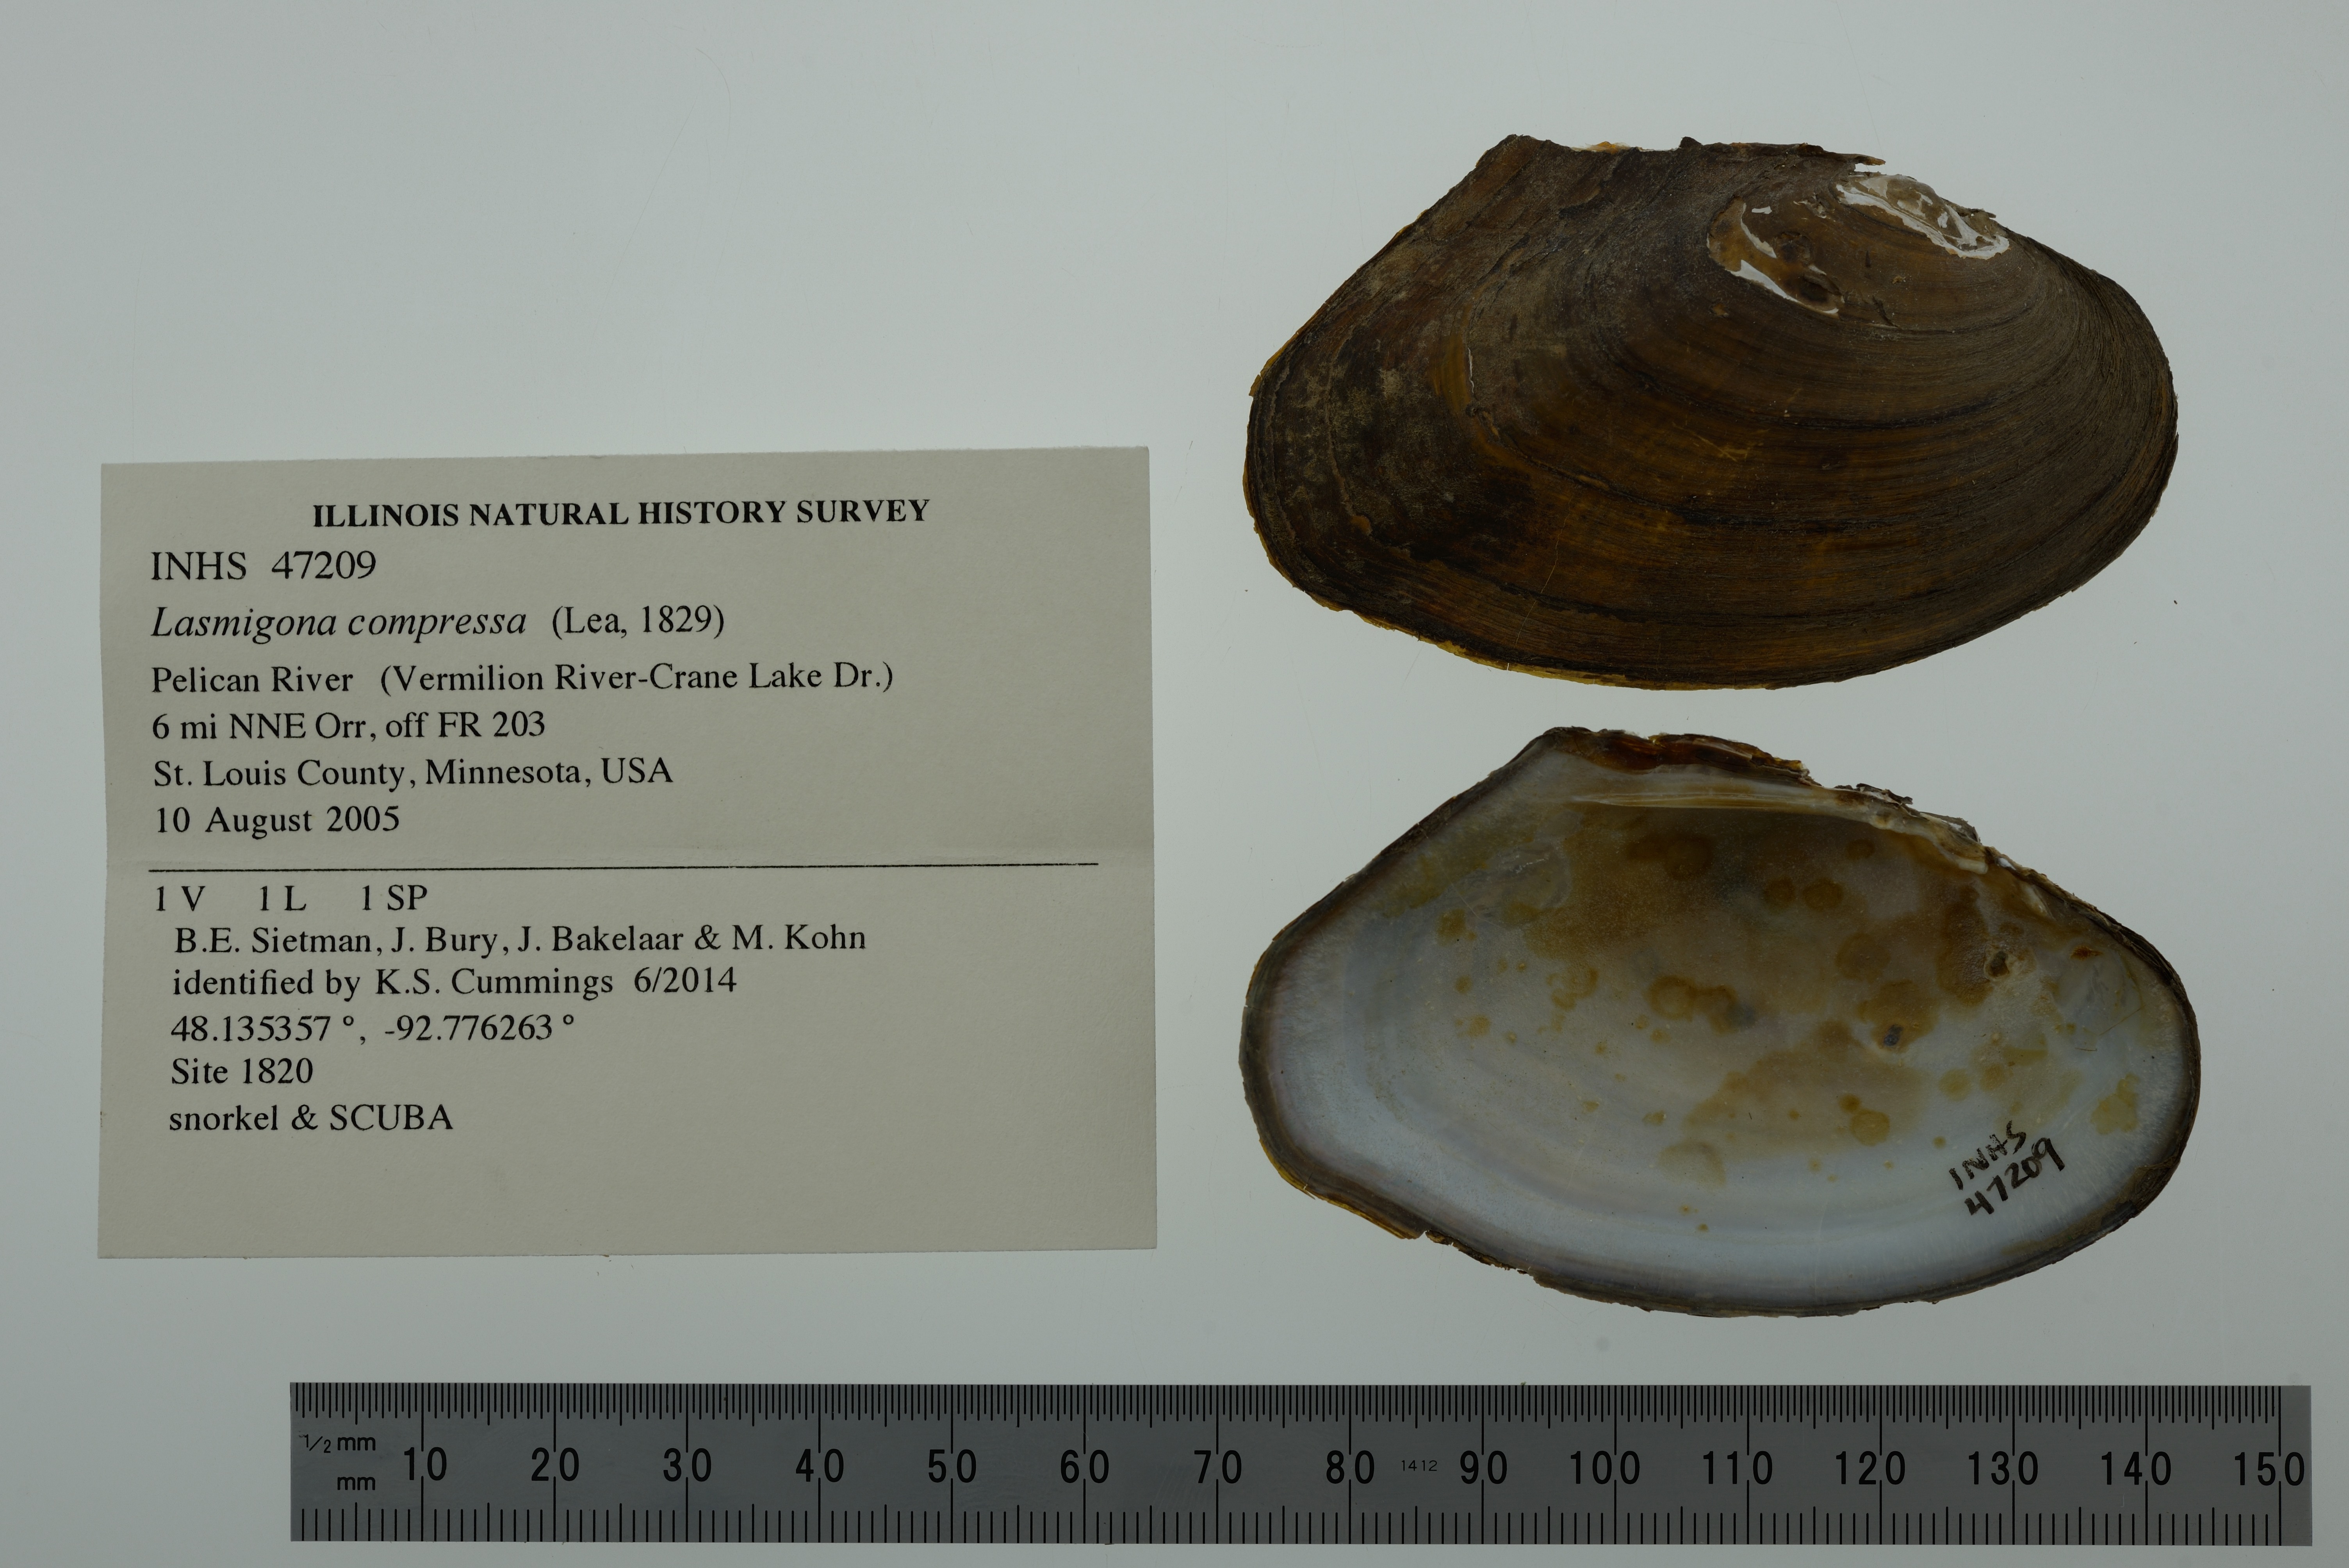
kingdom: Animalia
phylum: Mollusca
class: Bivalvia
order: Unionida
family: Unionidae
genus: Lasmigona
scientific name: Lasmigona compressa
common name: Creek heelsplitter
